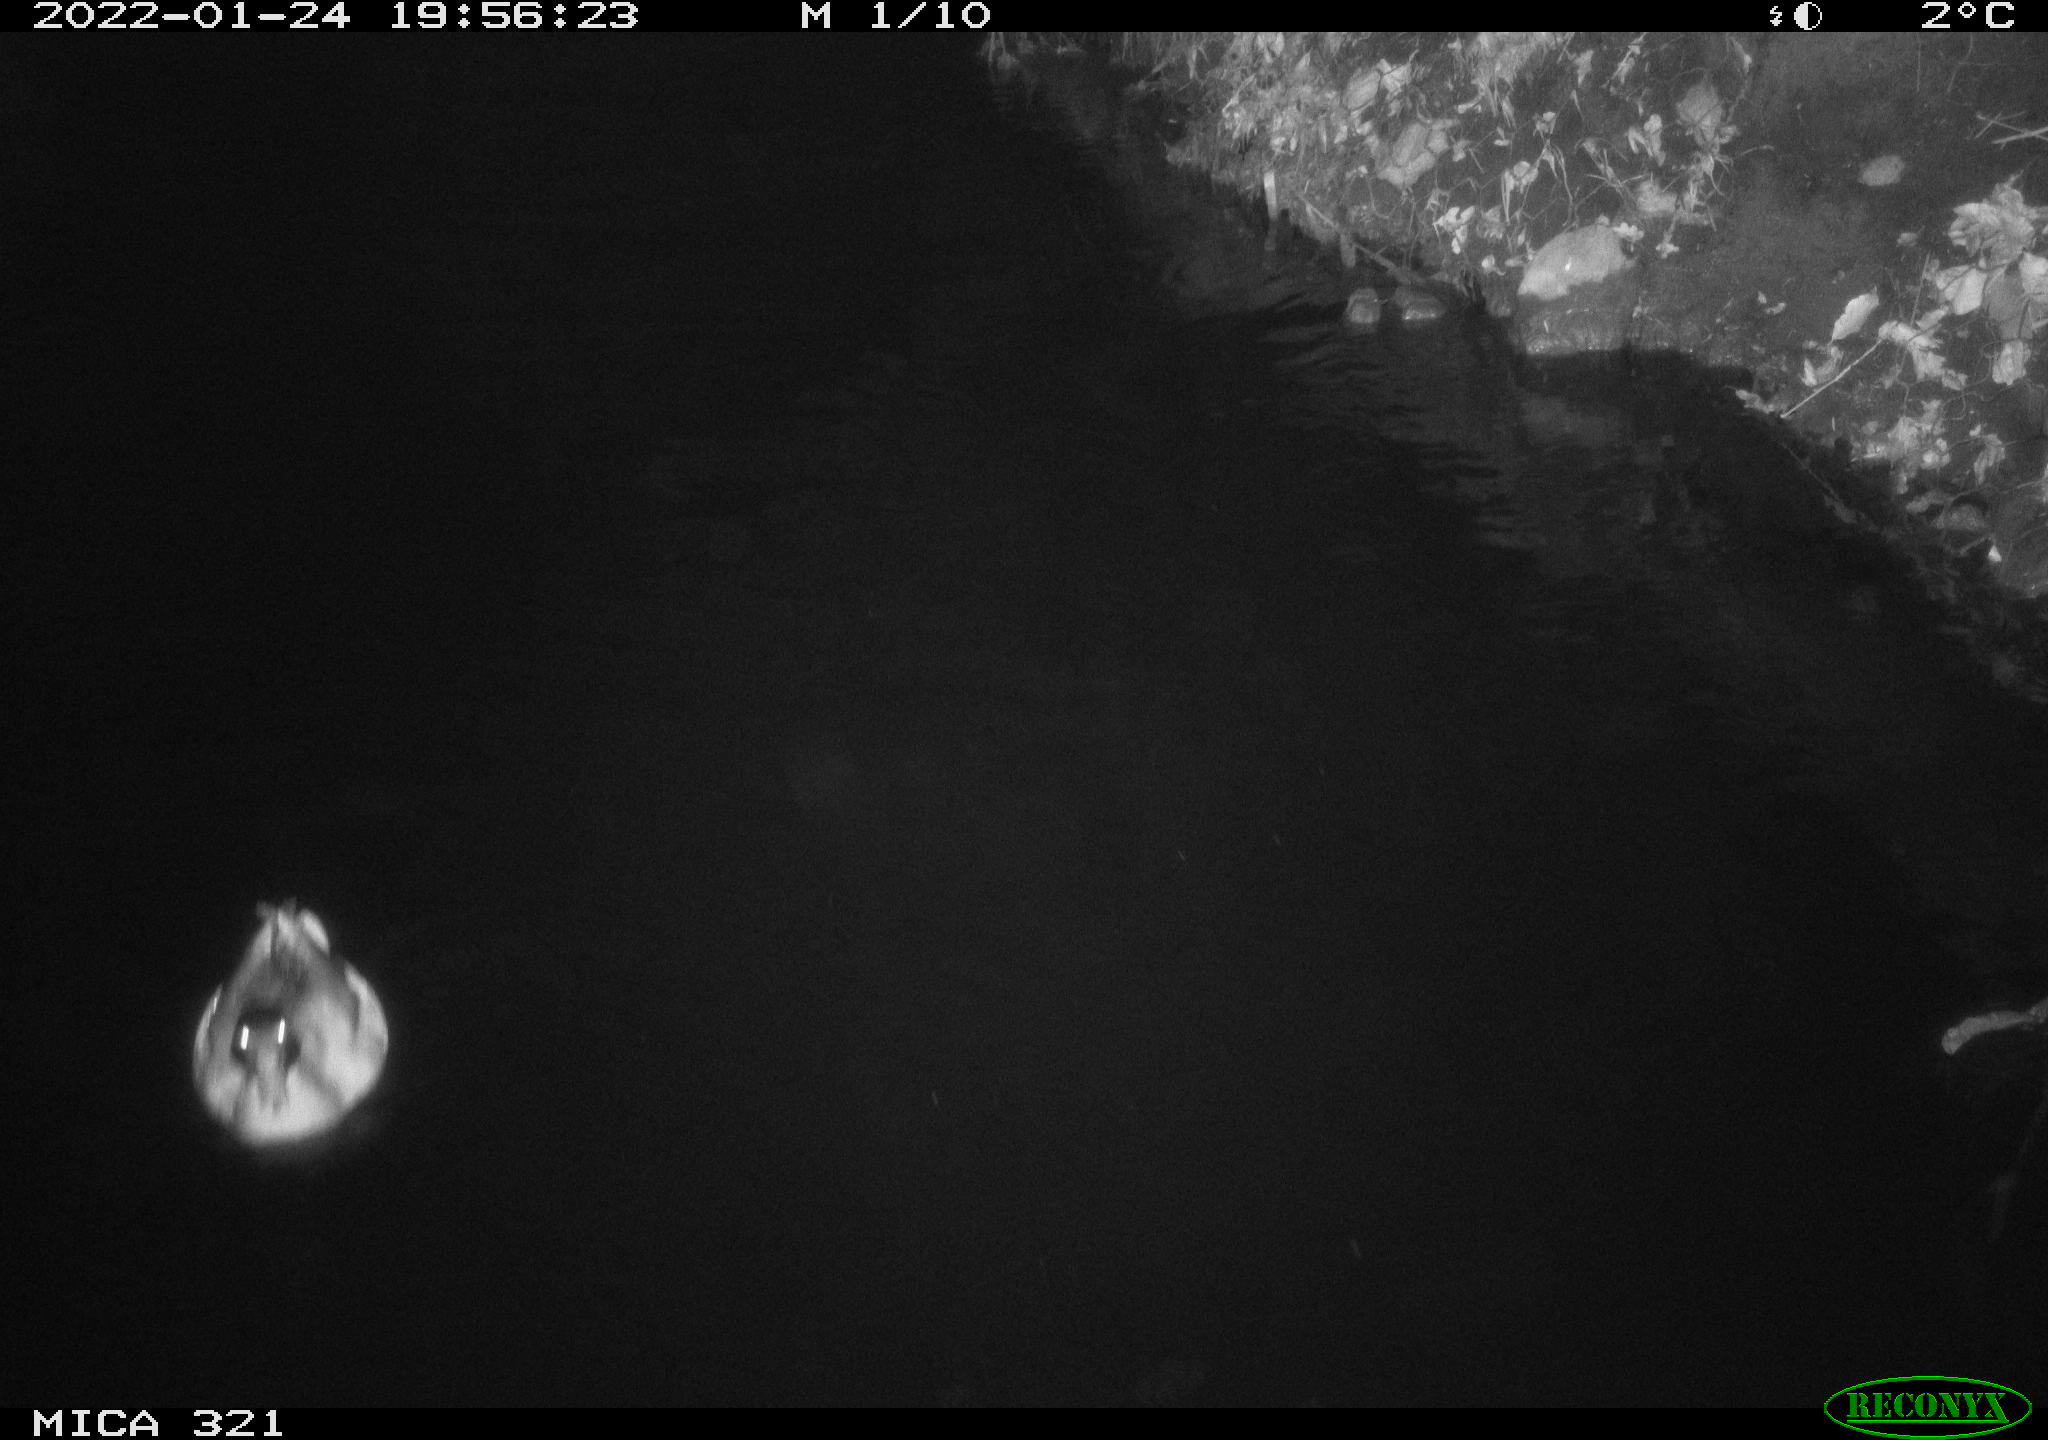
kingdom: Animalia
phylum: Chordata
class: Aves
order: Anseriformes
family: Anatidae
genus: Anas
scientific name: Anas
